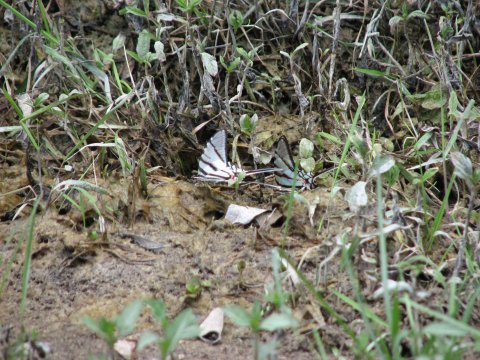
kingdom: Animalia
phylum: Arthropoda
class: Insecta
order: Lepidoptera
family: Papilionidae
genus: Eurytides
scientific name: Eurytides
